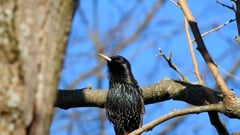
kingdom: Animalia
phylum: Chordata
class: Aves
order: Passeriformes
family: Sturnidae
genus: Sturnus
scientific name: Sturnus vulgaris
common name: Common starling
